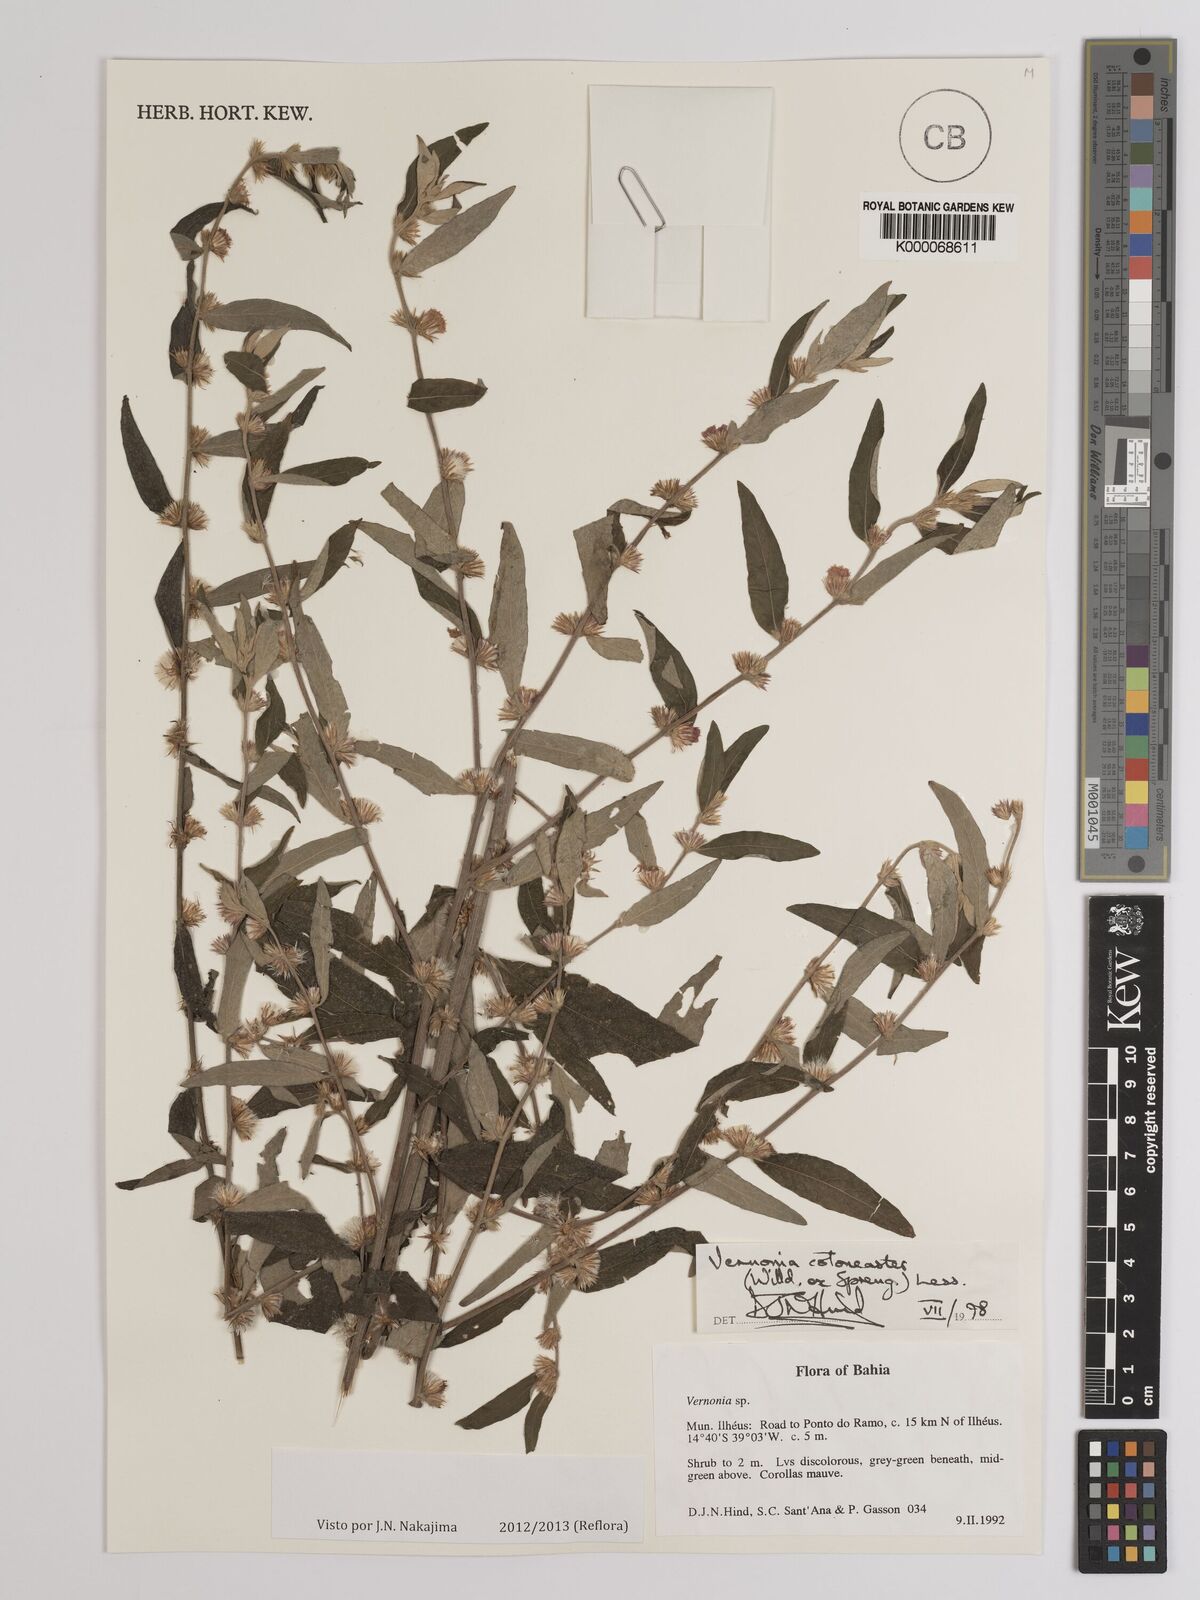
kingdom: Plantae
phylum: Tracheophyta
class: Magnoliopsida
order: Asterales
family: Asteraceae
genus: Lepidaploa
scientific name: Lepidaploa cotoneaster
